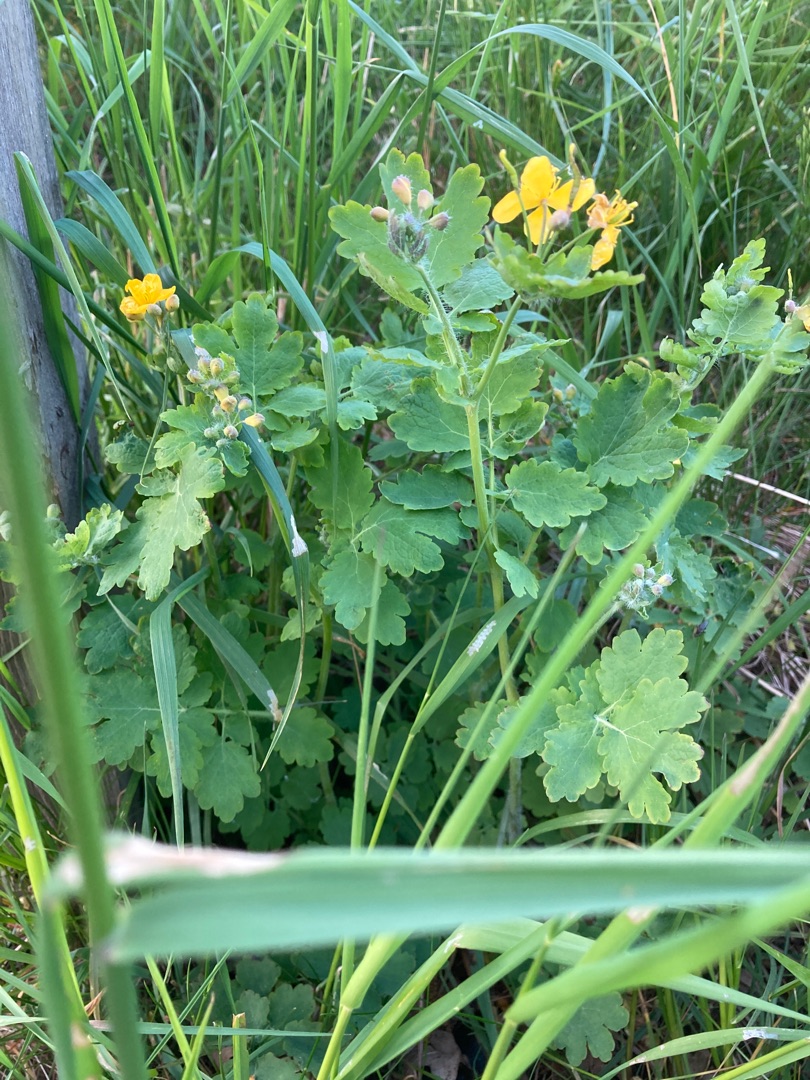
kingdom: Plantae
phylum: Tracheophyta
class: Magnoliopsida
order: Ranunculales
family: Papaveraceae
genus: Chelidonium
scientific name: Chelidonium majus
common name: Svaleurt
